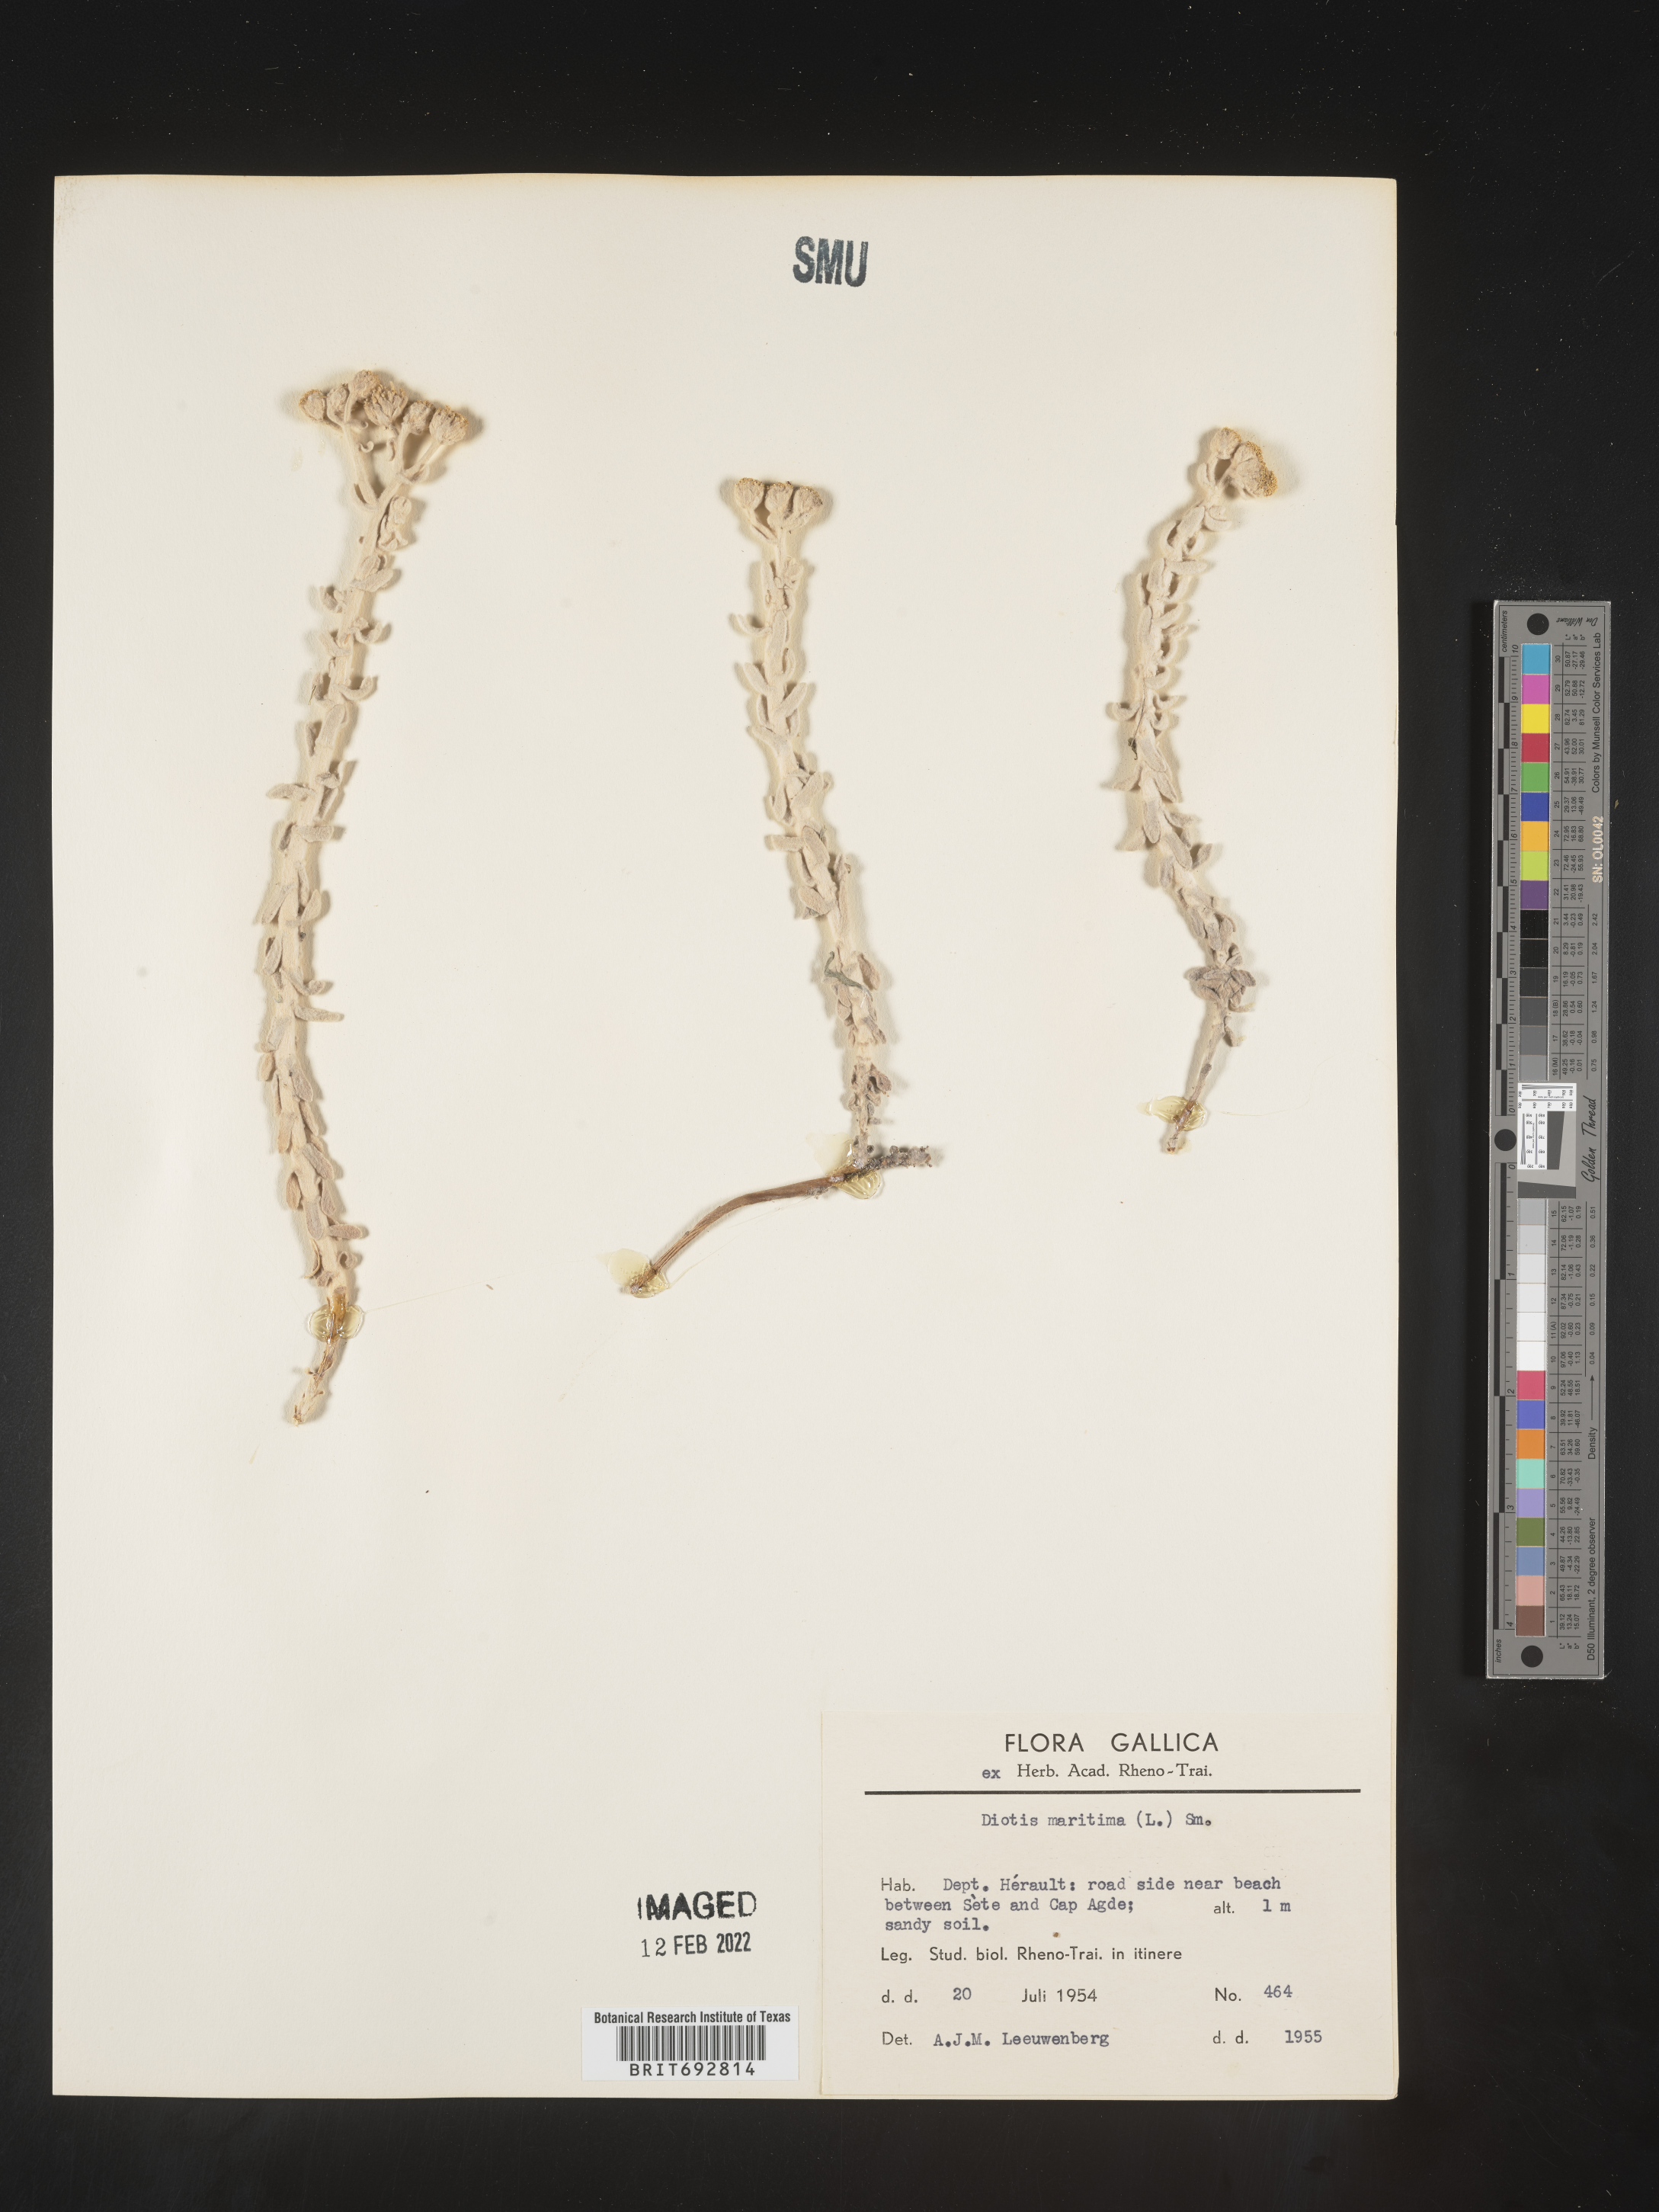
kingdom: Plantae
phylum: Tracheophyta
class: Magnoliopsida
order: Asterales
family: Asteraceae
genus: Achillea
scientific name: Achillea
